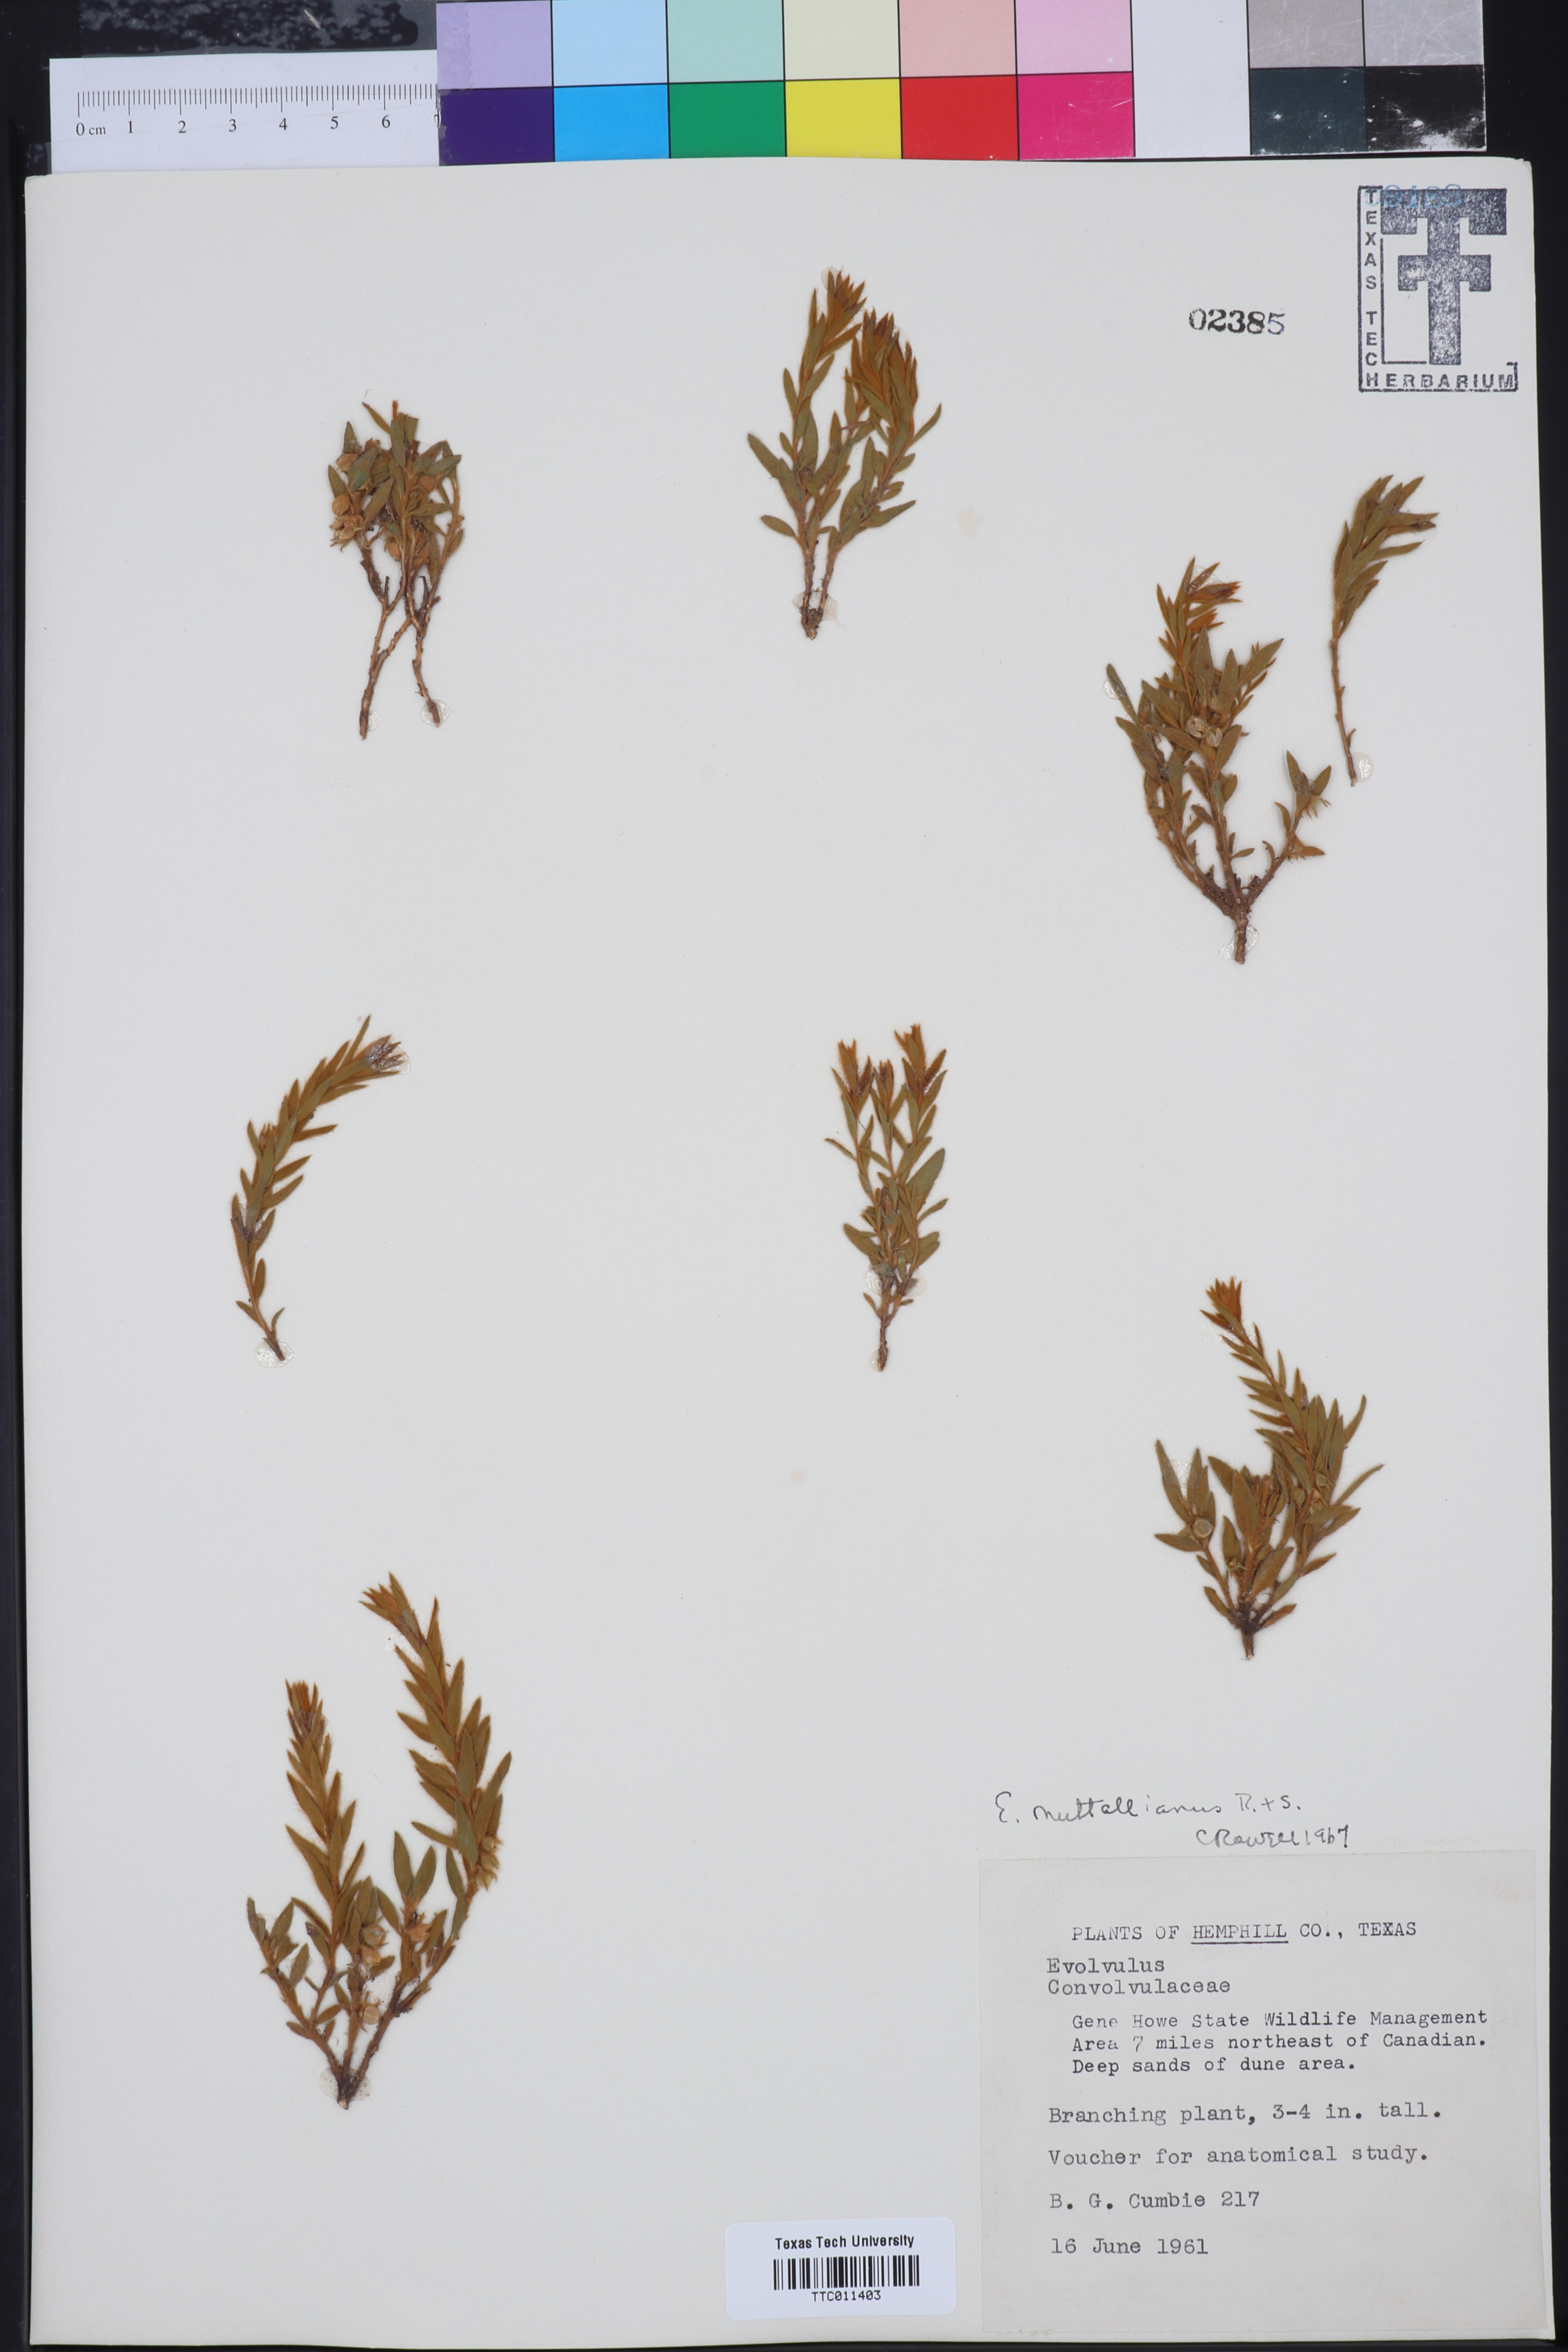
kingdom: Plantae
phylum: Tracheophyta
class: Magnoliopsida
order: Solanales
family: Convolvulaceae
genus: Evolvulus
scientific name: Evolvulus nuttallianus
